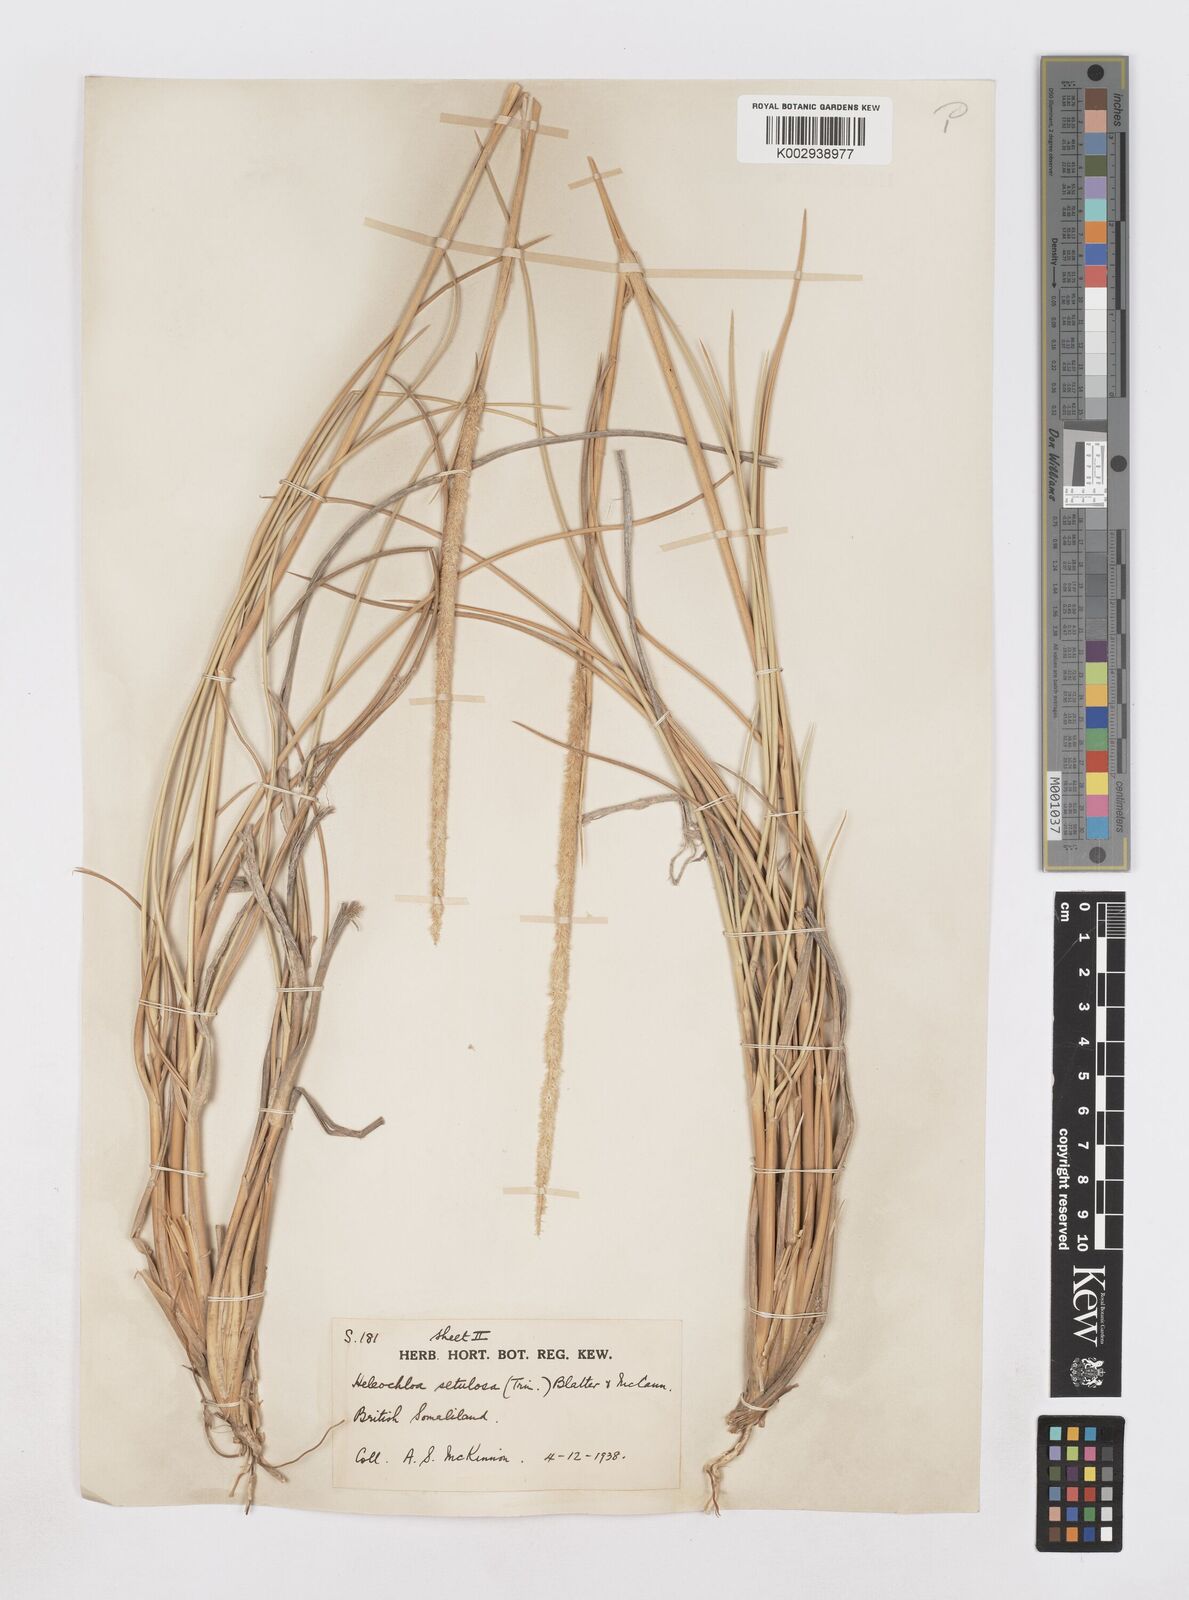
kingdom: Plantae
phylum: Tracheophyta
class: Liliopsida
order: Poales
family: Poaceae
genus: Urochondra
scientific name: Urochondra setulosa
